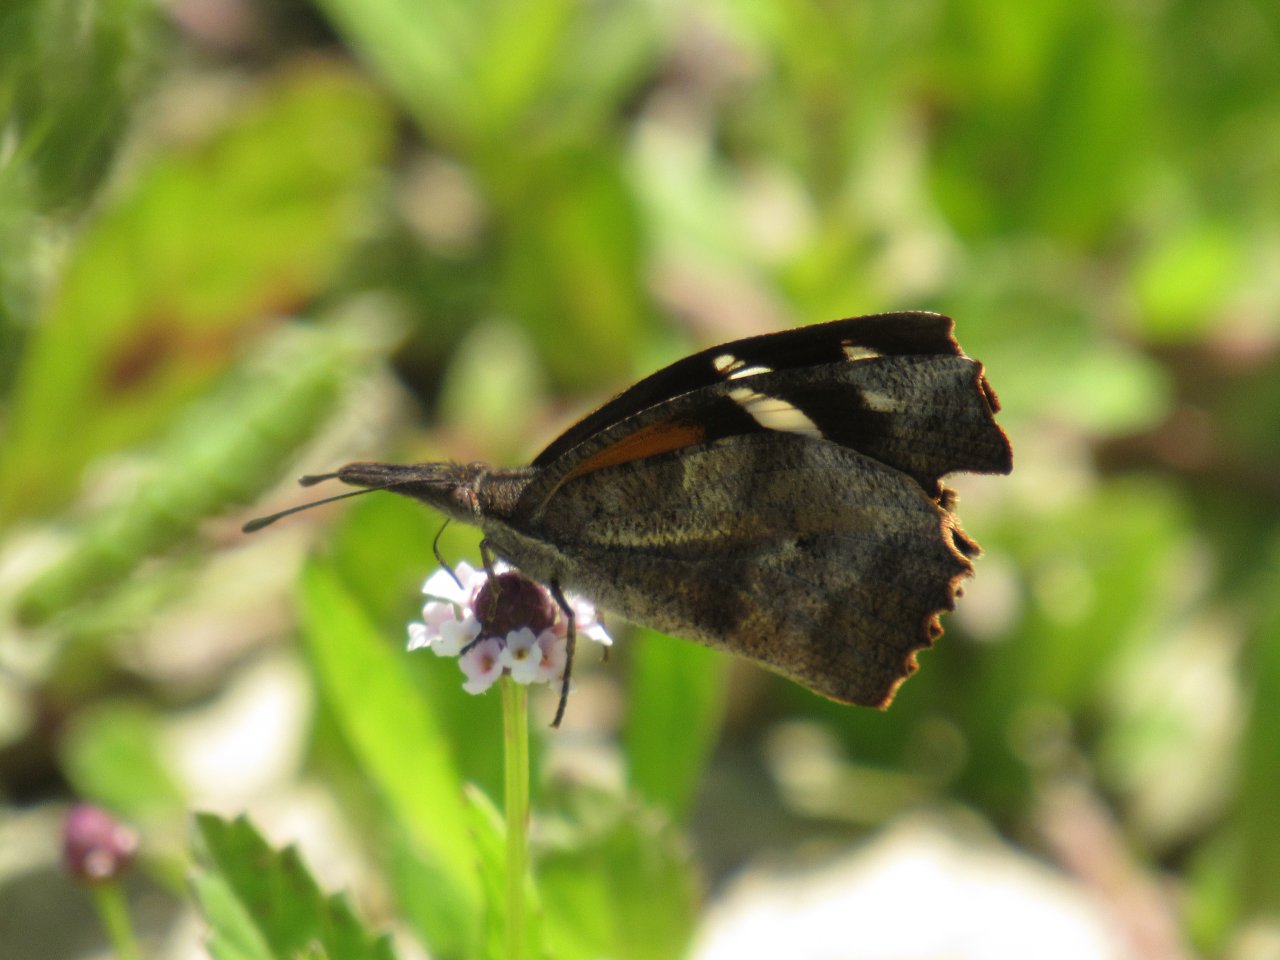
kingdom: Animalia
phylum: Arthropoda
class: Insecta
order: Lepidoptera
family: Nymphalidae
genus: Libytheana
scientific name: Libytheana carinenta
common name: American Snout
